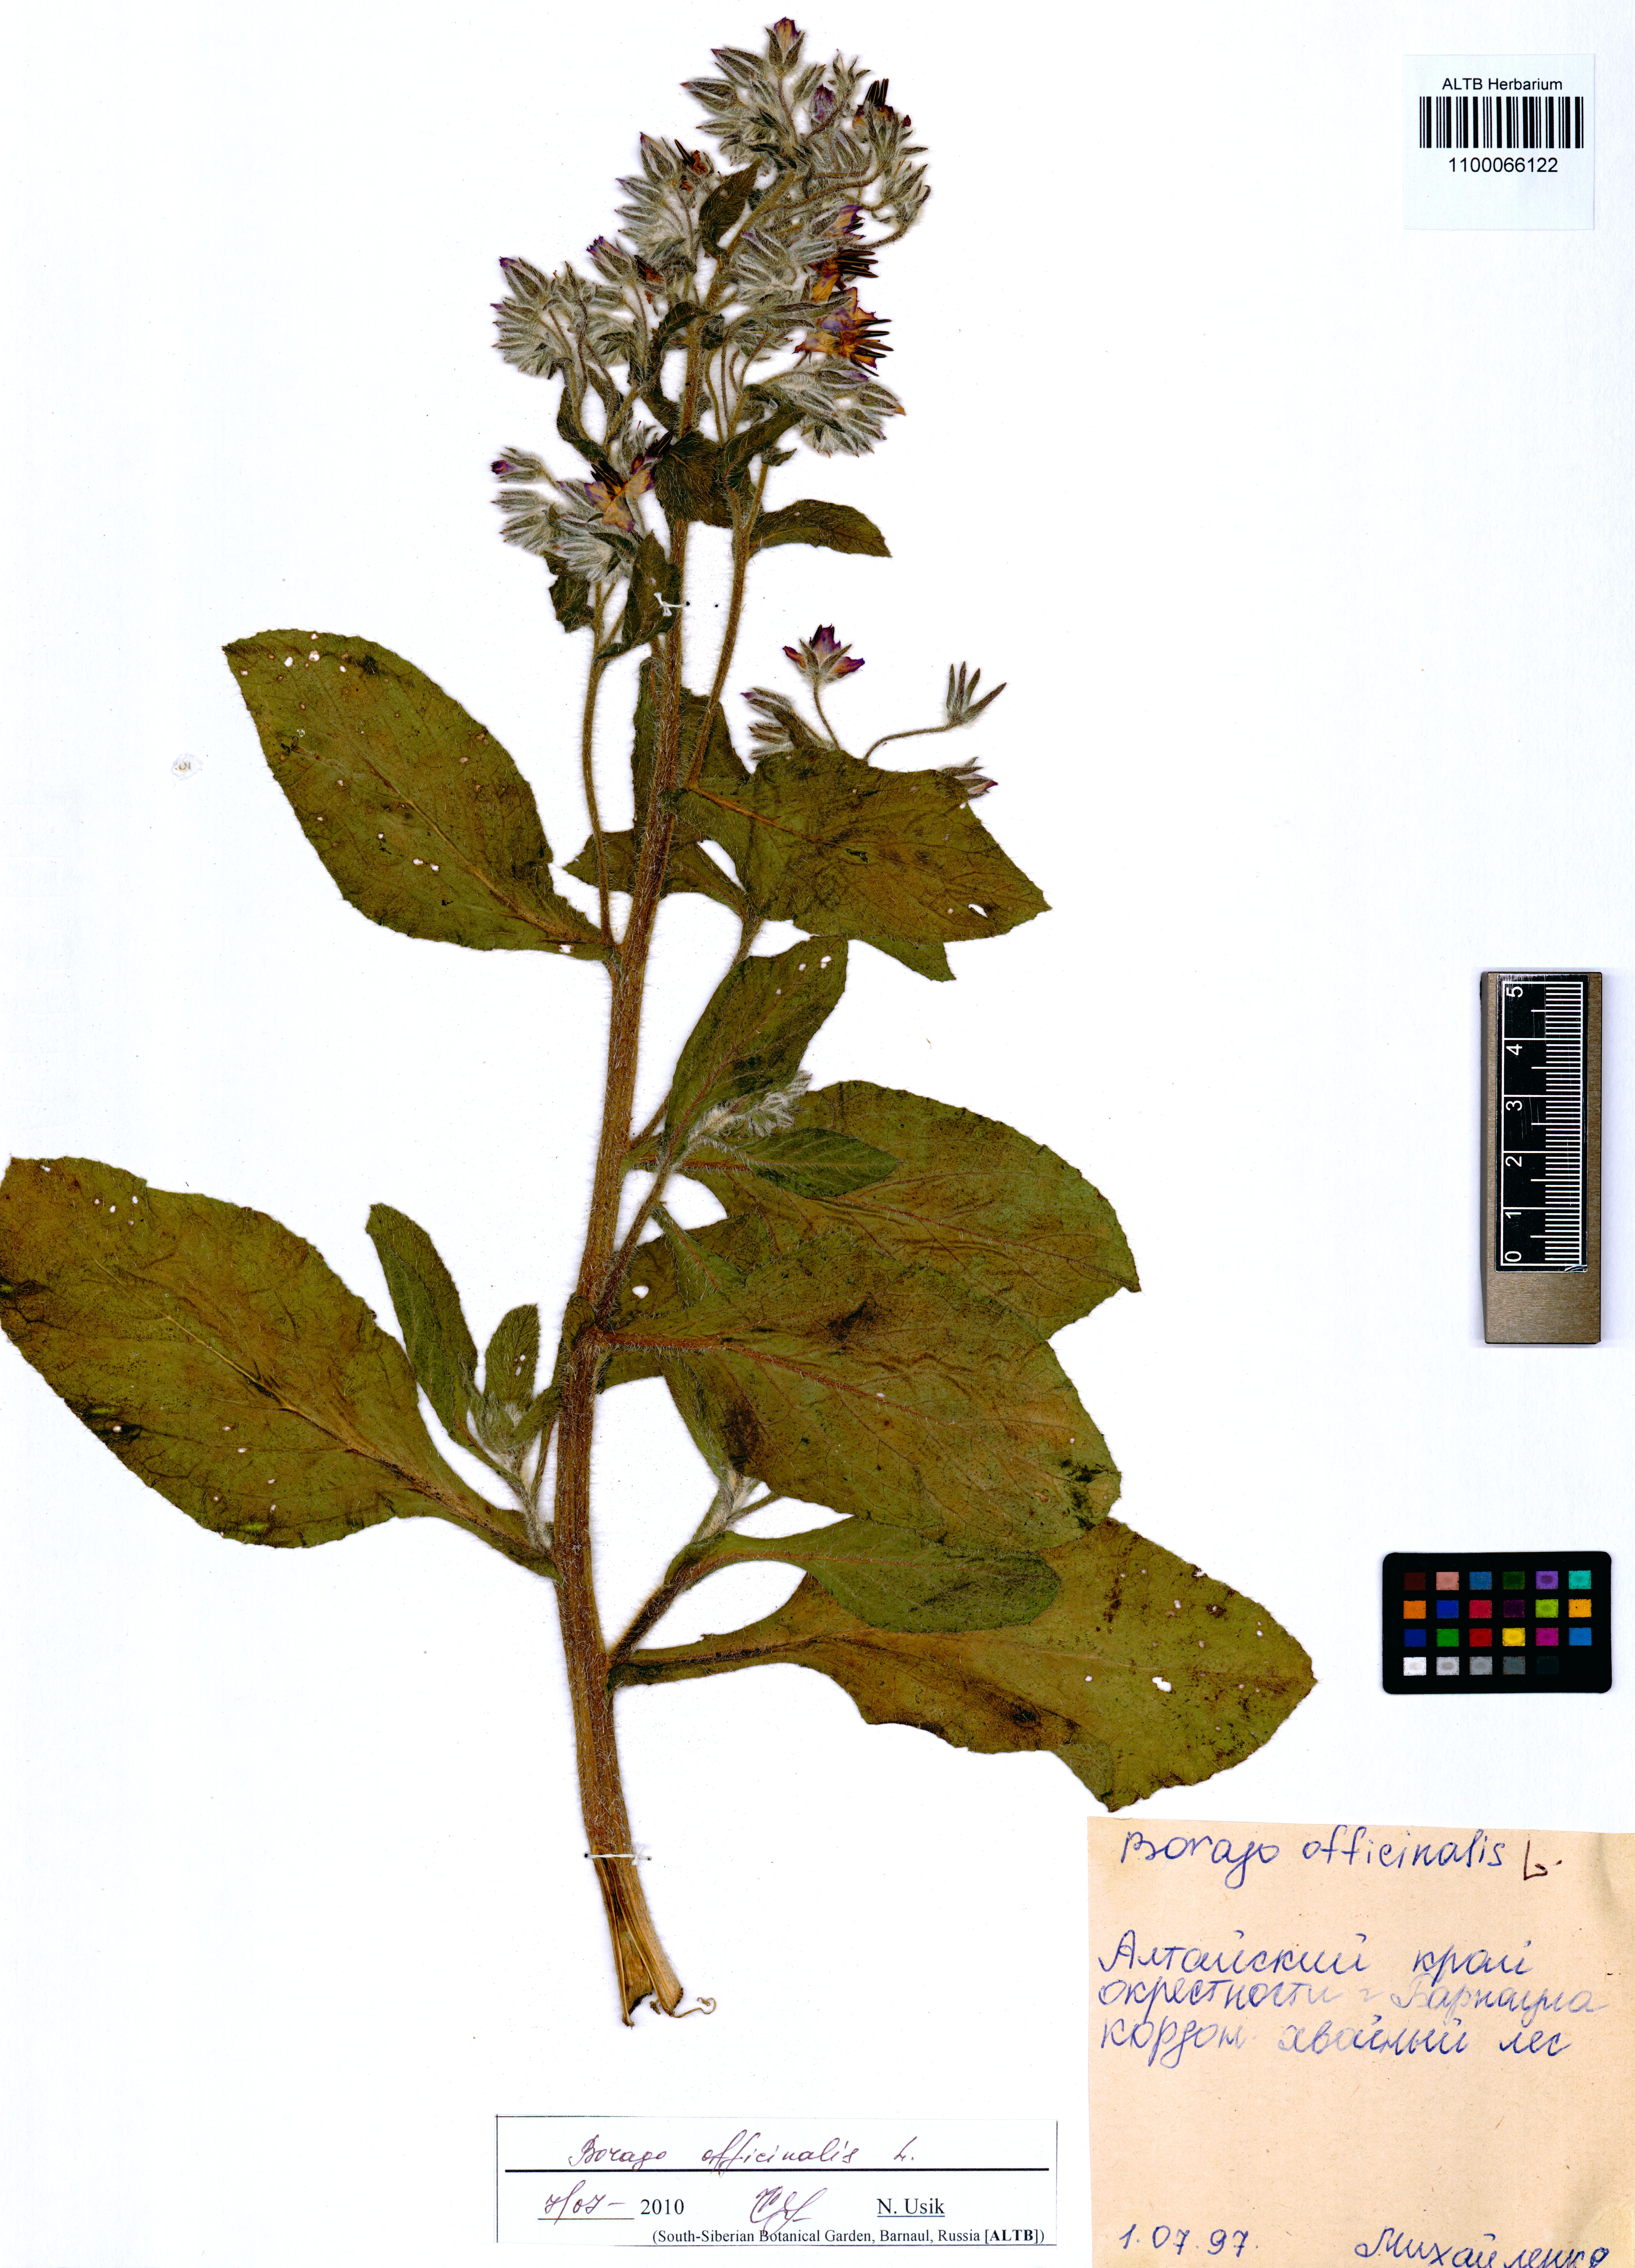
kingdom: Plantae
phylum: Tracheophyta
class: Magnoliopsida
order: Boraginales
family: Boraginaceae
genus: Borago
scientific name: Borago officinalis
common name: Borage
